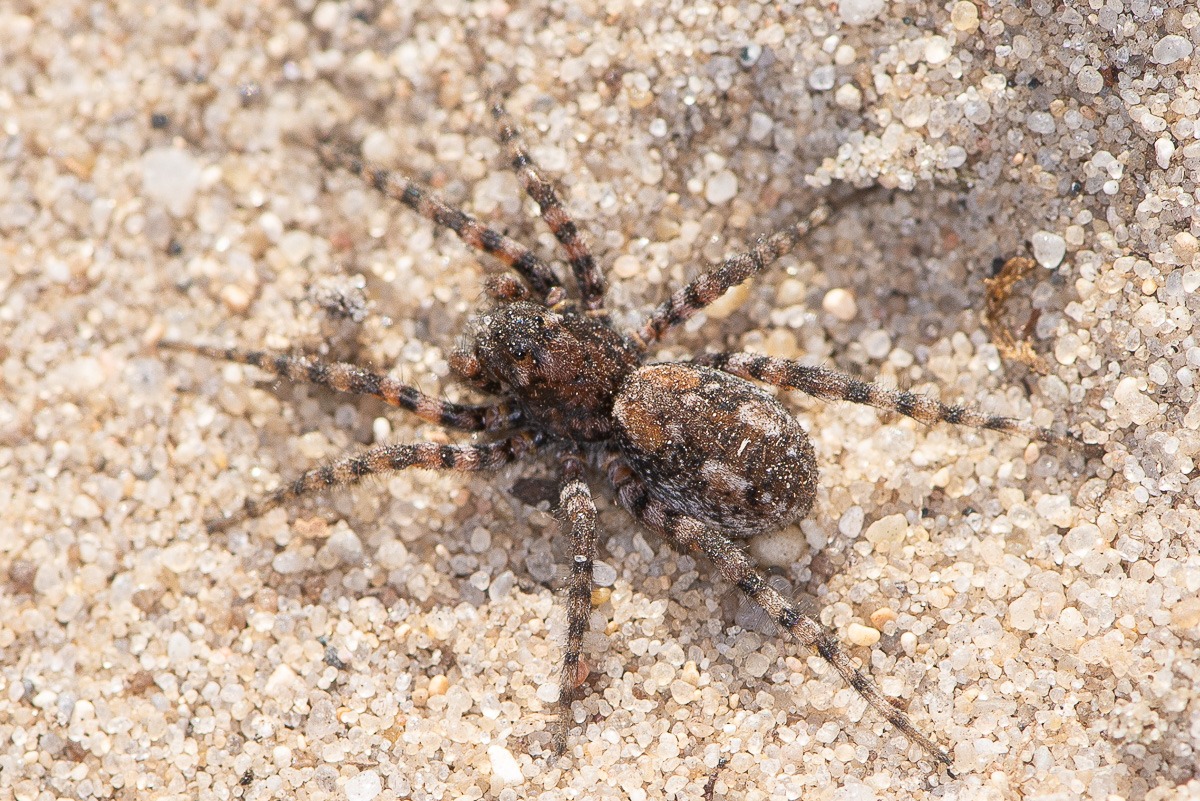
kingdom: Animalia
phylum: Arthropoda
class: Arachnida
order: Araneae
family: Lycosidae
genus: Arctosa
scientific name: Arctosa perita
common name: Klitgraveedderkop
